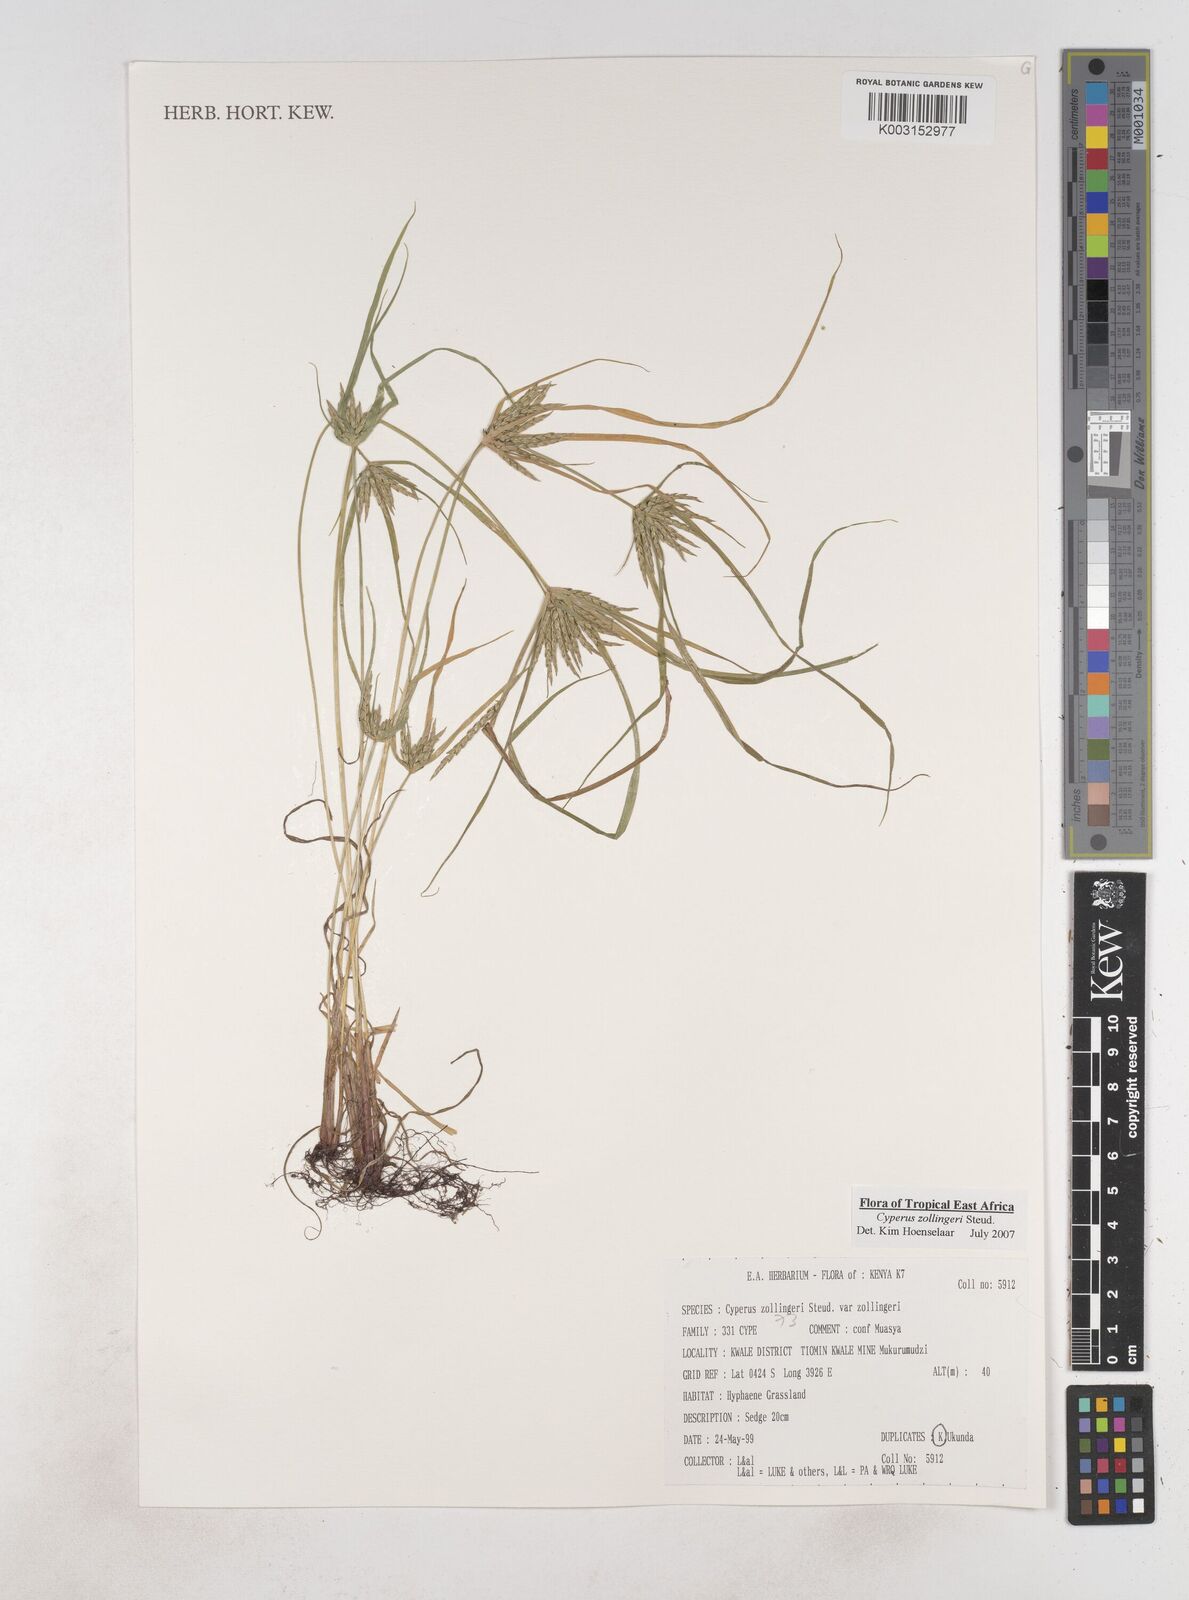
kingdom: Plantae
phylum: Tracheophyta
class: Liliopsida
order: Poales
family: Cyperaceae
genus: Cyperus
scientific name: Cyperus zollingerioides
